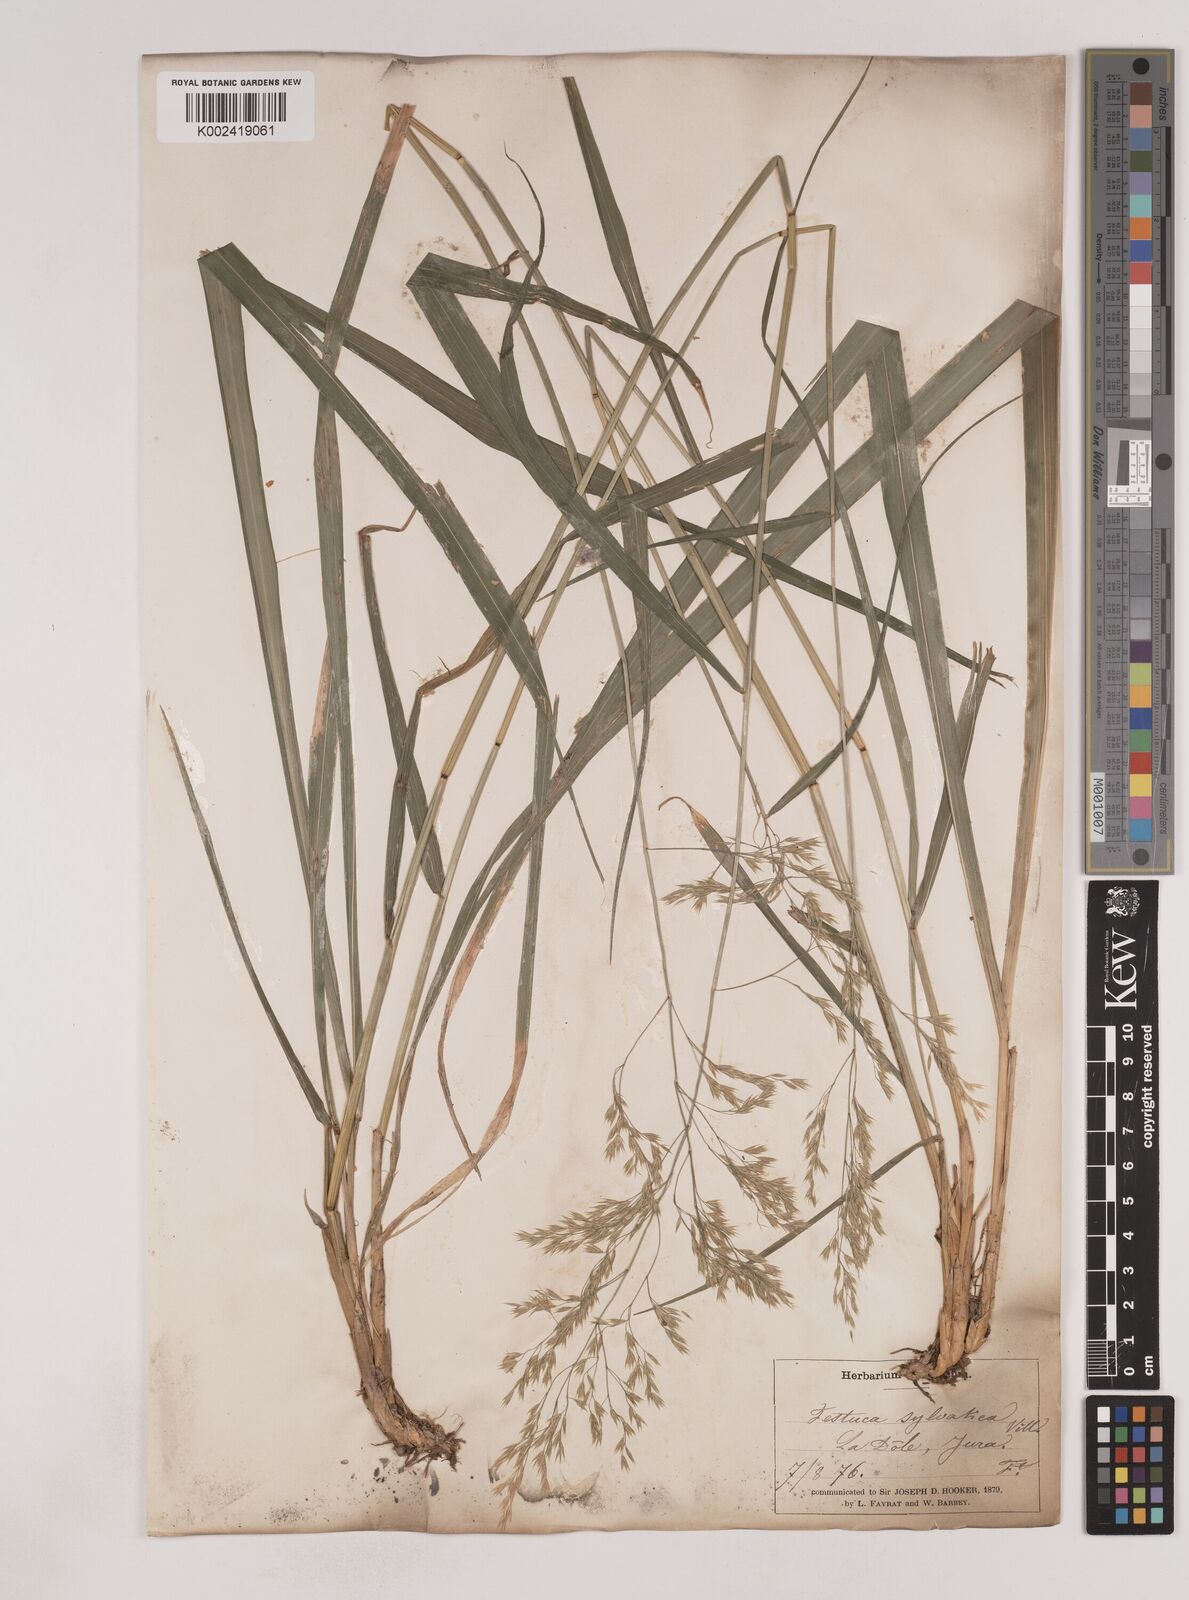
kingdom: Plantae
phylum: Tracheophyta
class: Liliopsida
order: Poales
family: Poaceae
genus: Festuca
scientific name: Festuca drymeja
